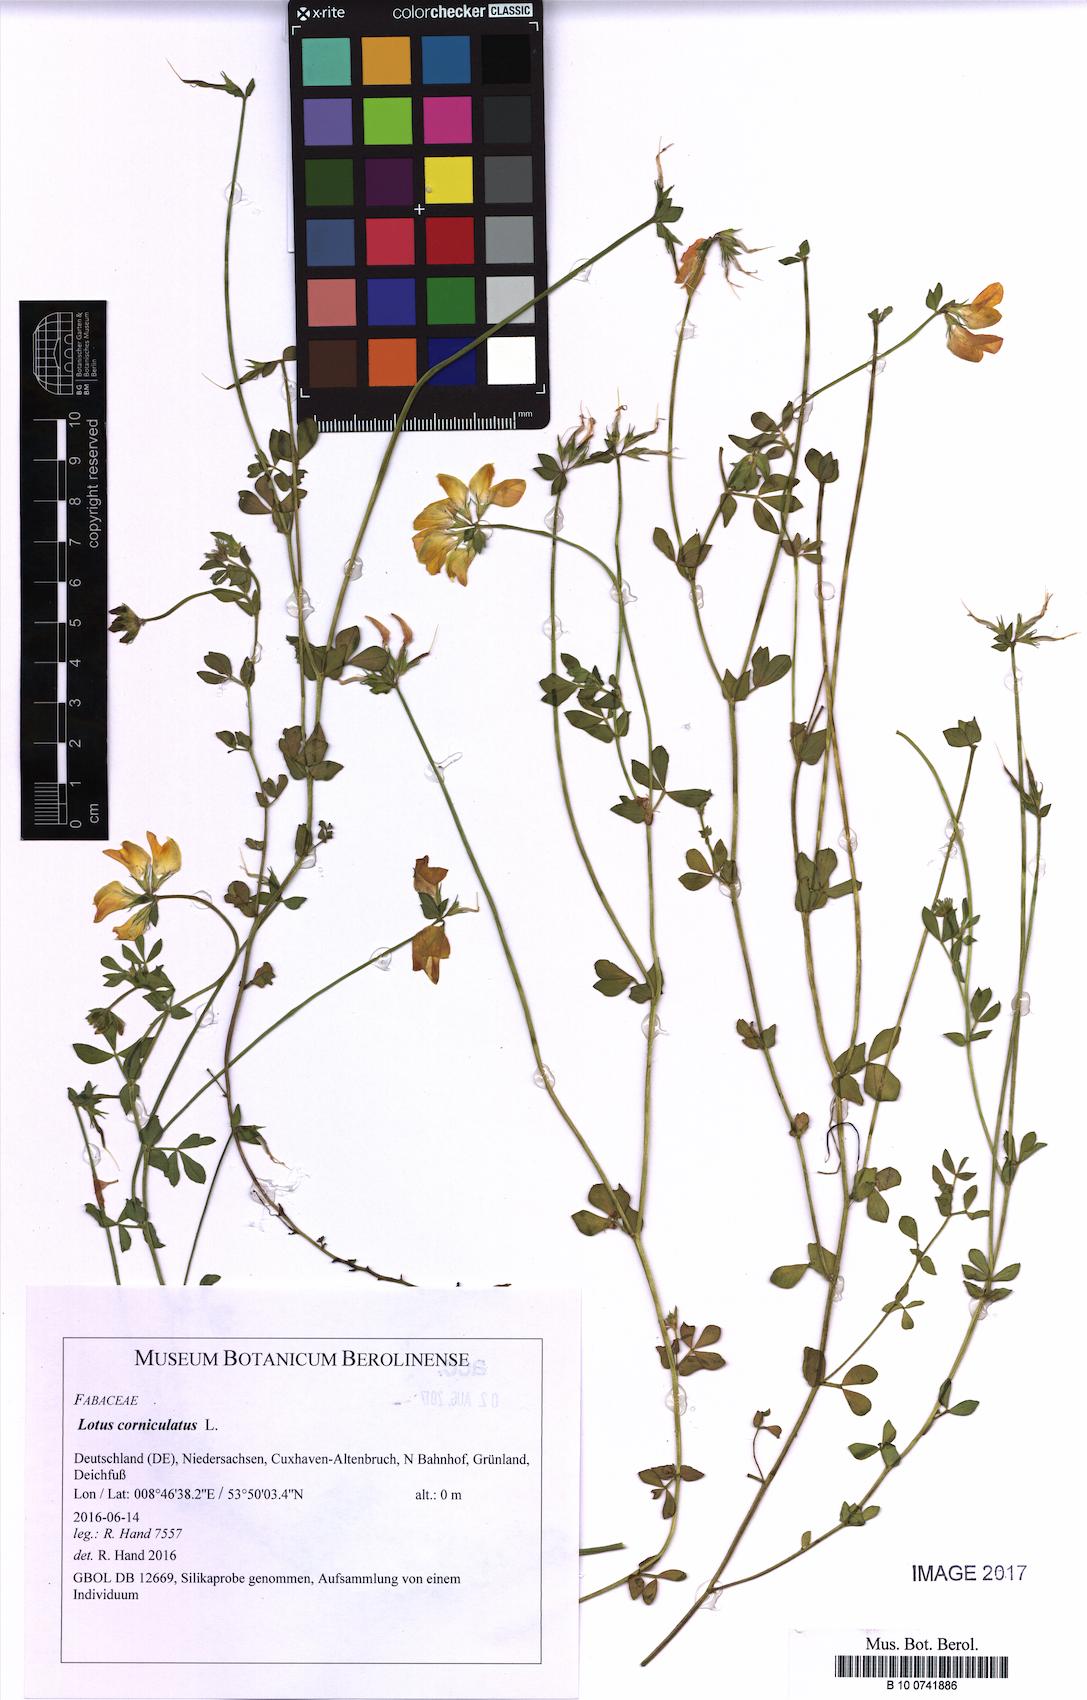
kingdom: Plantae
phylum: Tracheophyta
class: Magnoliopsida
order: Fabales
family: Fabaceae
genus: Lotus
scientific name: Lotus corniculatus
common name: Common bird's-foot-trefoil
